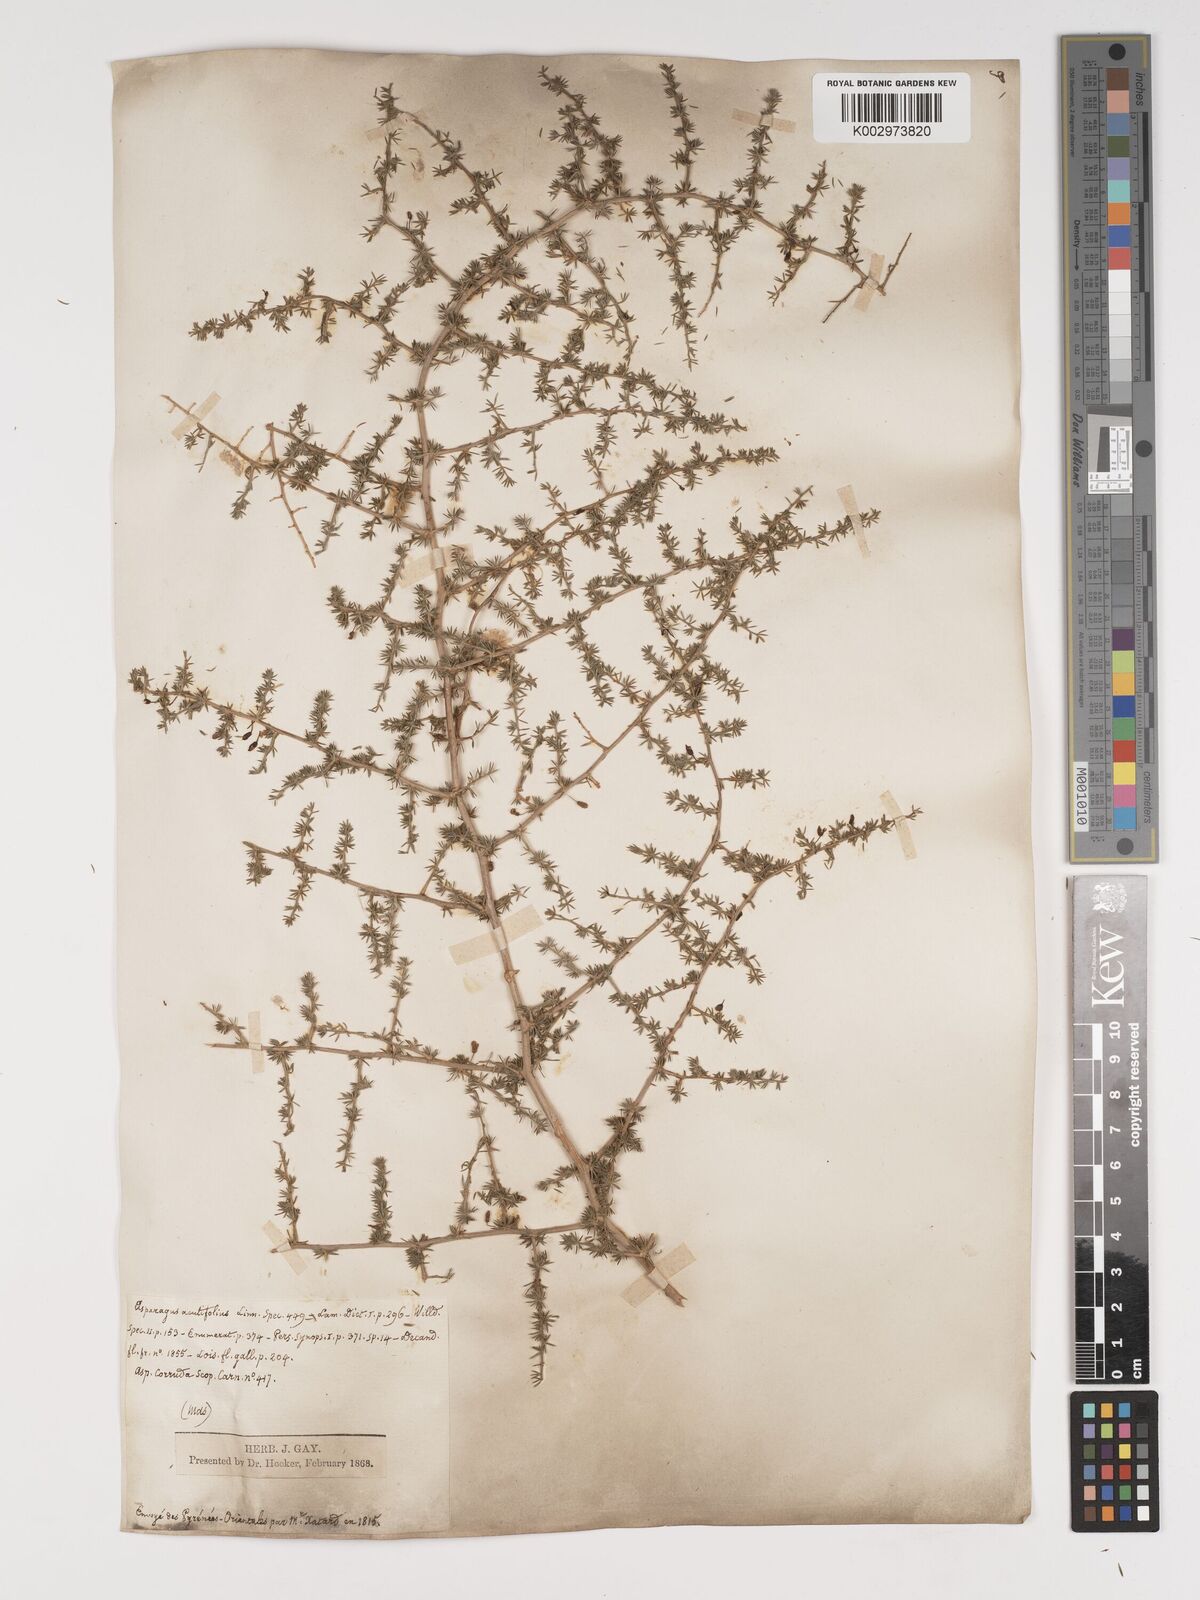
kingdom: Plantae
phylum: Tracheophyta
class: Liliopsida
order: Asparagales
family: Asparagaceae
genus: Asparagus
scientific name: Asparagus aethiopicus
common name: Sprenger's asparagus fern
